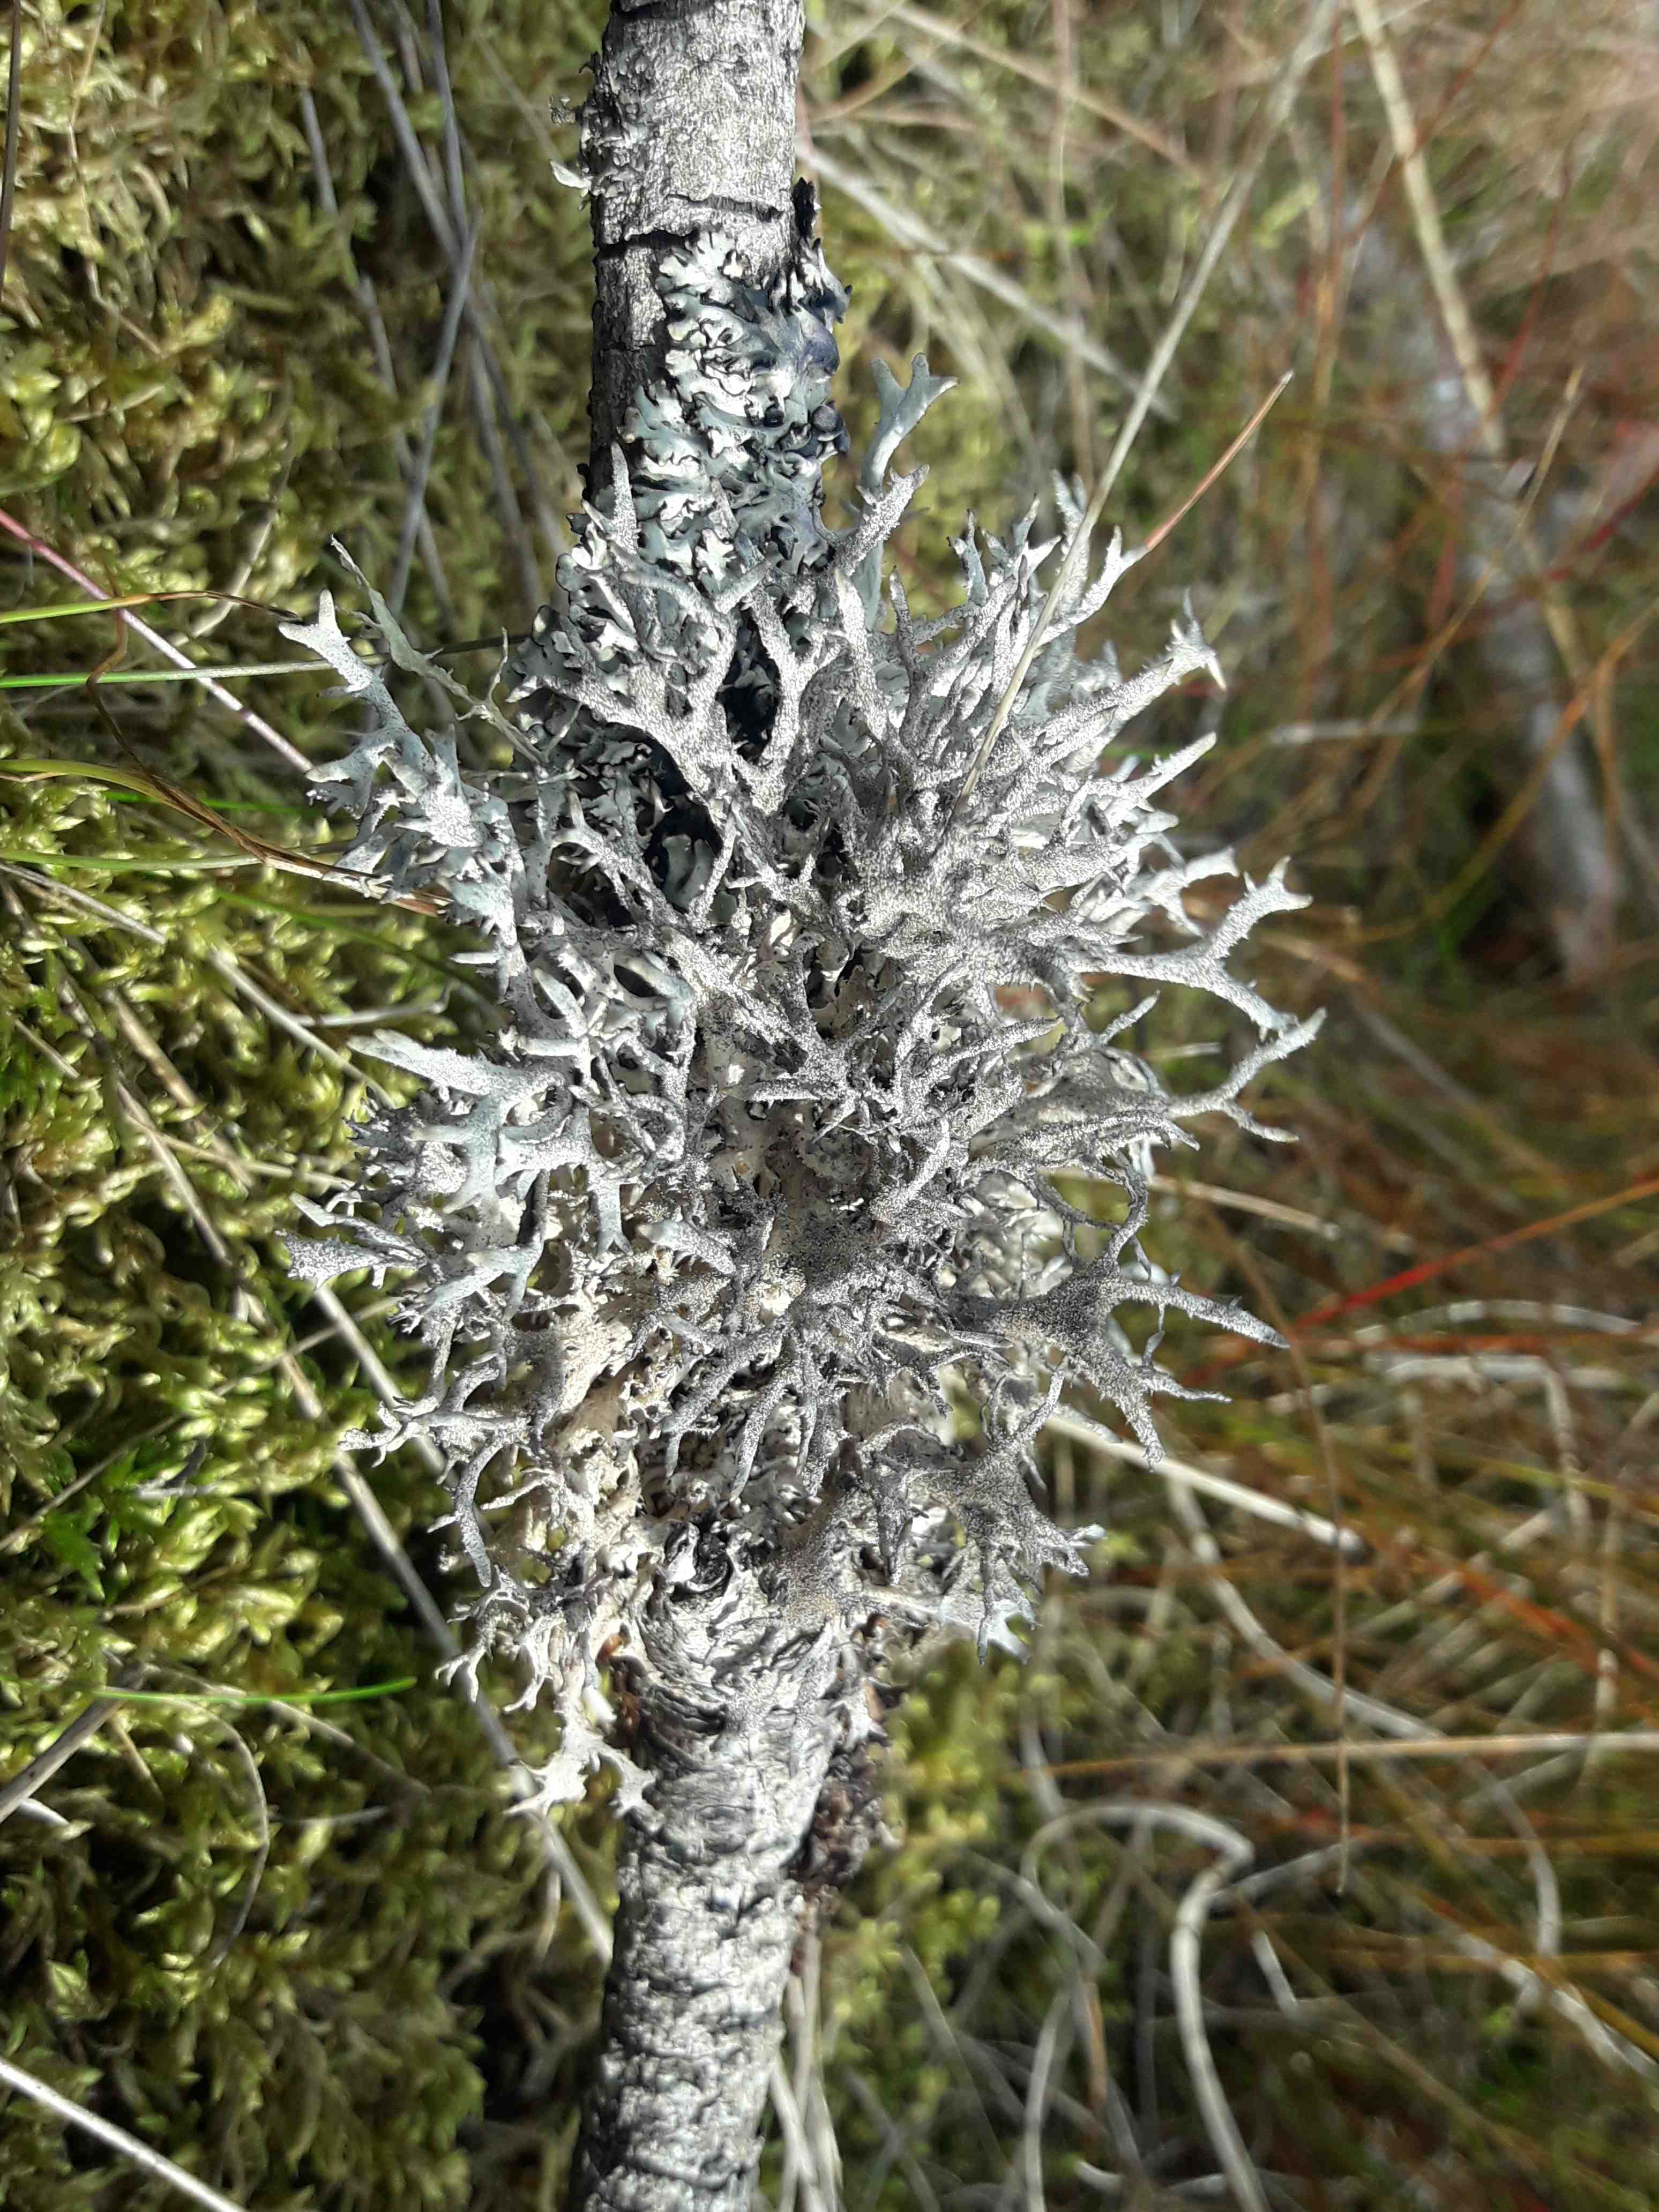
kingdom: Fungi
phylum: Ascomycota
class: Lecanoromycetes
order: Lecanorales
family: Parmeliaceae
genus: Pseudevernia
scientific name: Pseudevernia furfuracea
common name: grå fyrrelav
